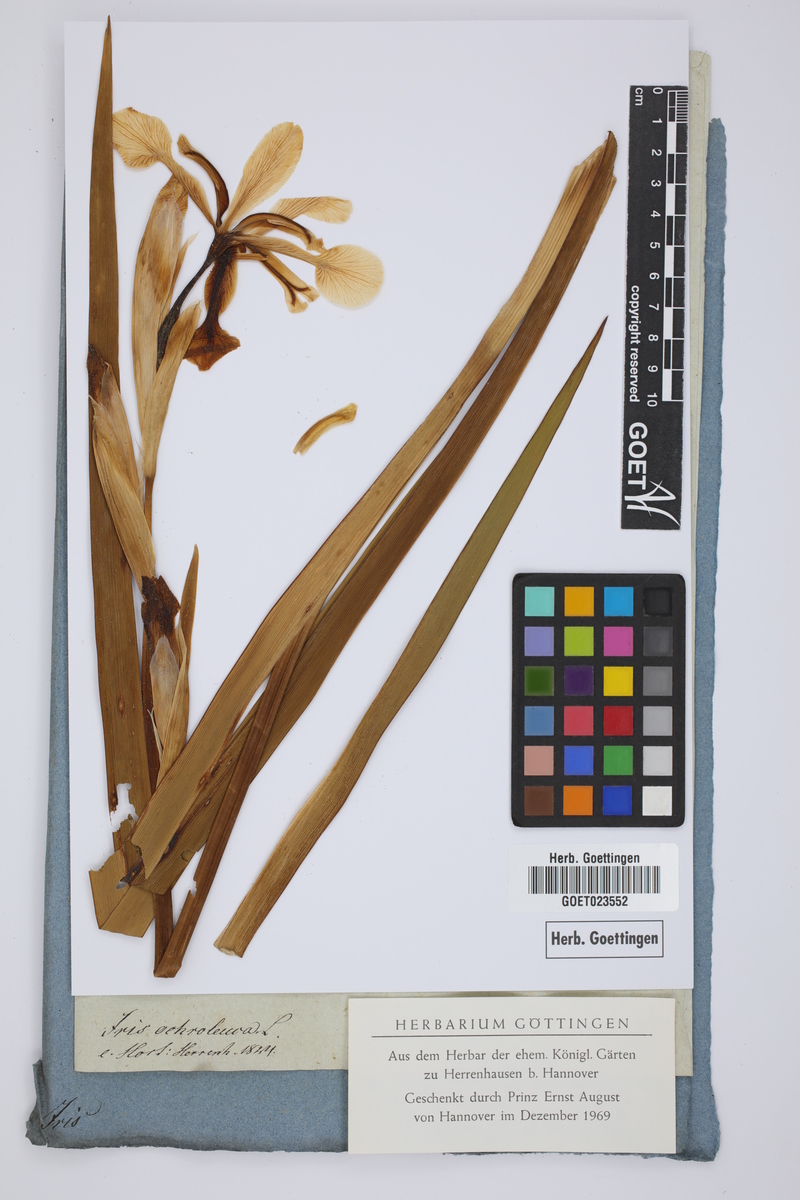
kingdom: Plantae
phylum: Tracheophyta
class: Liliopsida
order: Asparagales
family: Iridaceae
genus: Iris
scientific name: Iris orientalis
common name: Turkish iris
